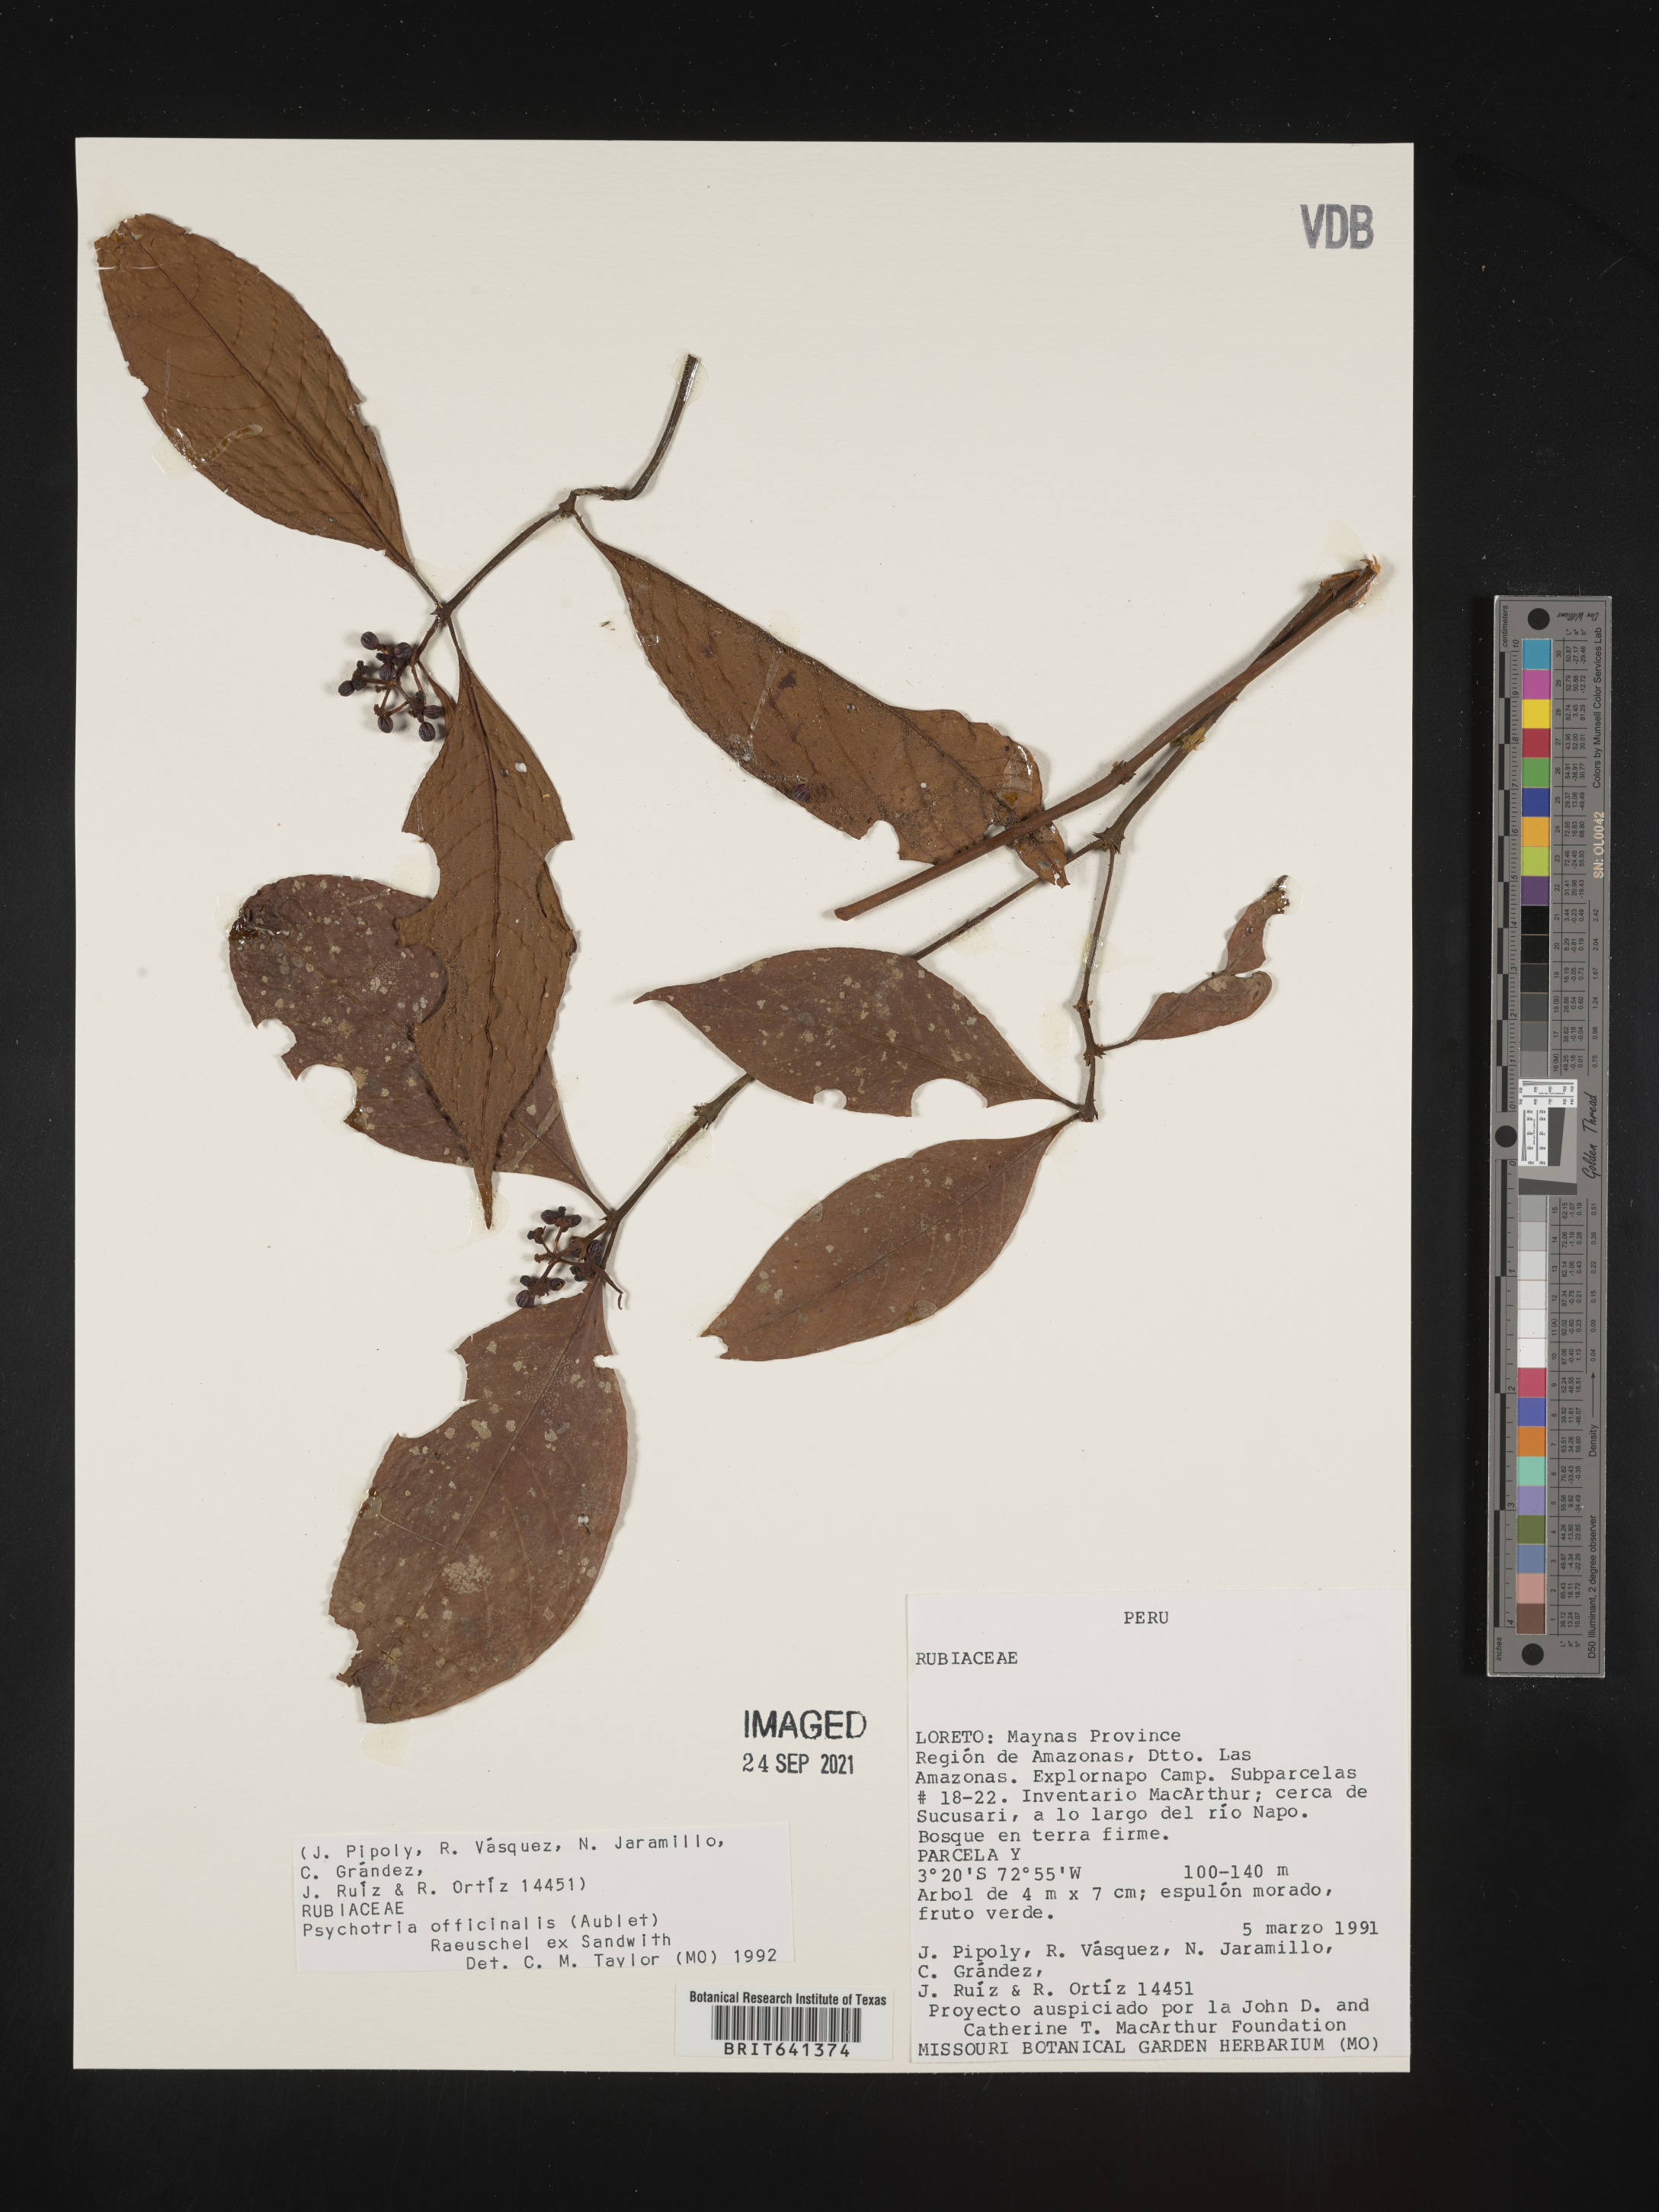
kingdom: Plantae
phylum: Tracheophyta
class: Magnoliopsida
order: Gentianales
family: Rubiaceae
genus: Psychotria
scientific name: Psychotria
